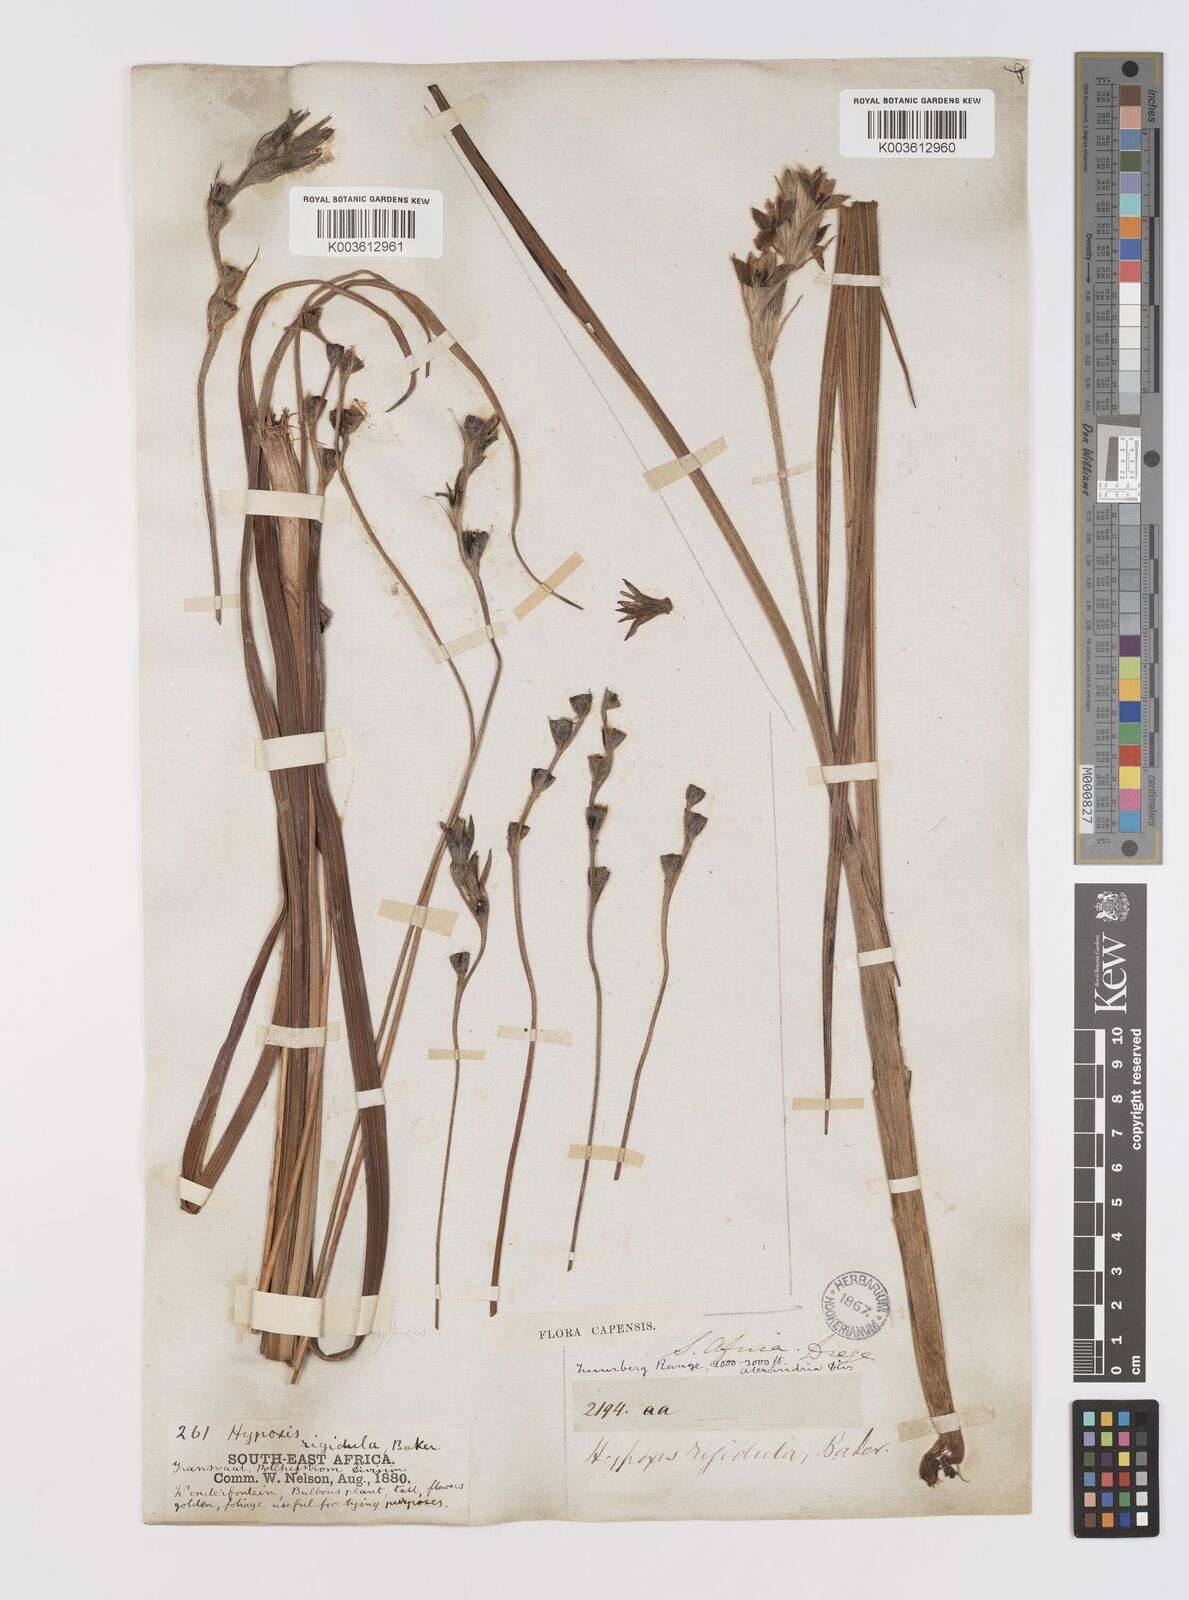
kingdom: Plantae
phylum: Tracheophyta
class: Liliopsida
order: Asparagales
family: Hypoxidaceae
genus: Hypoxis
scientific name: Hypoxis rigidula
